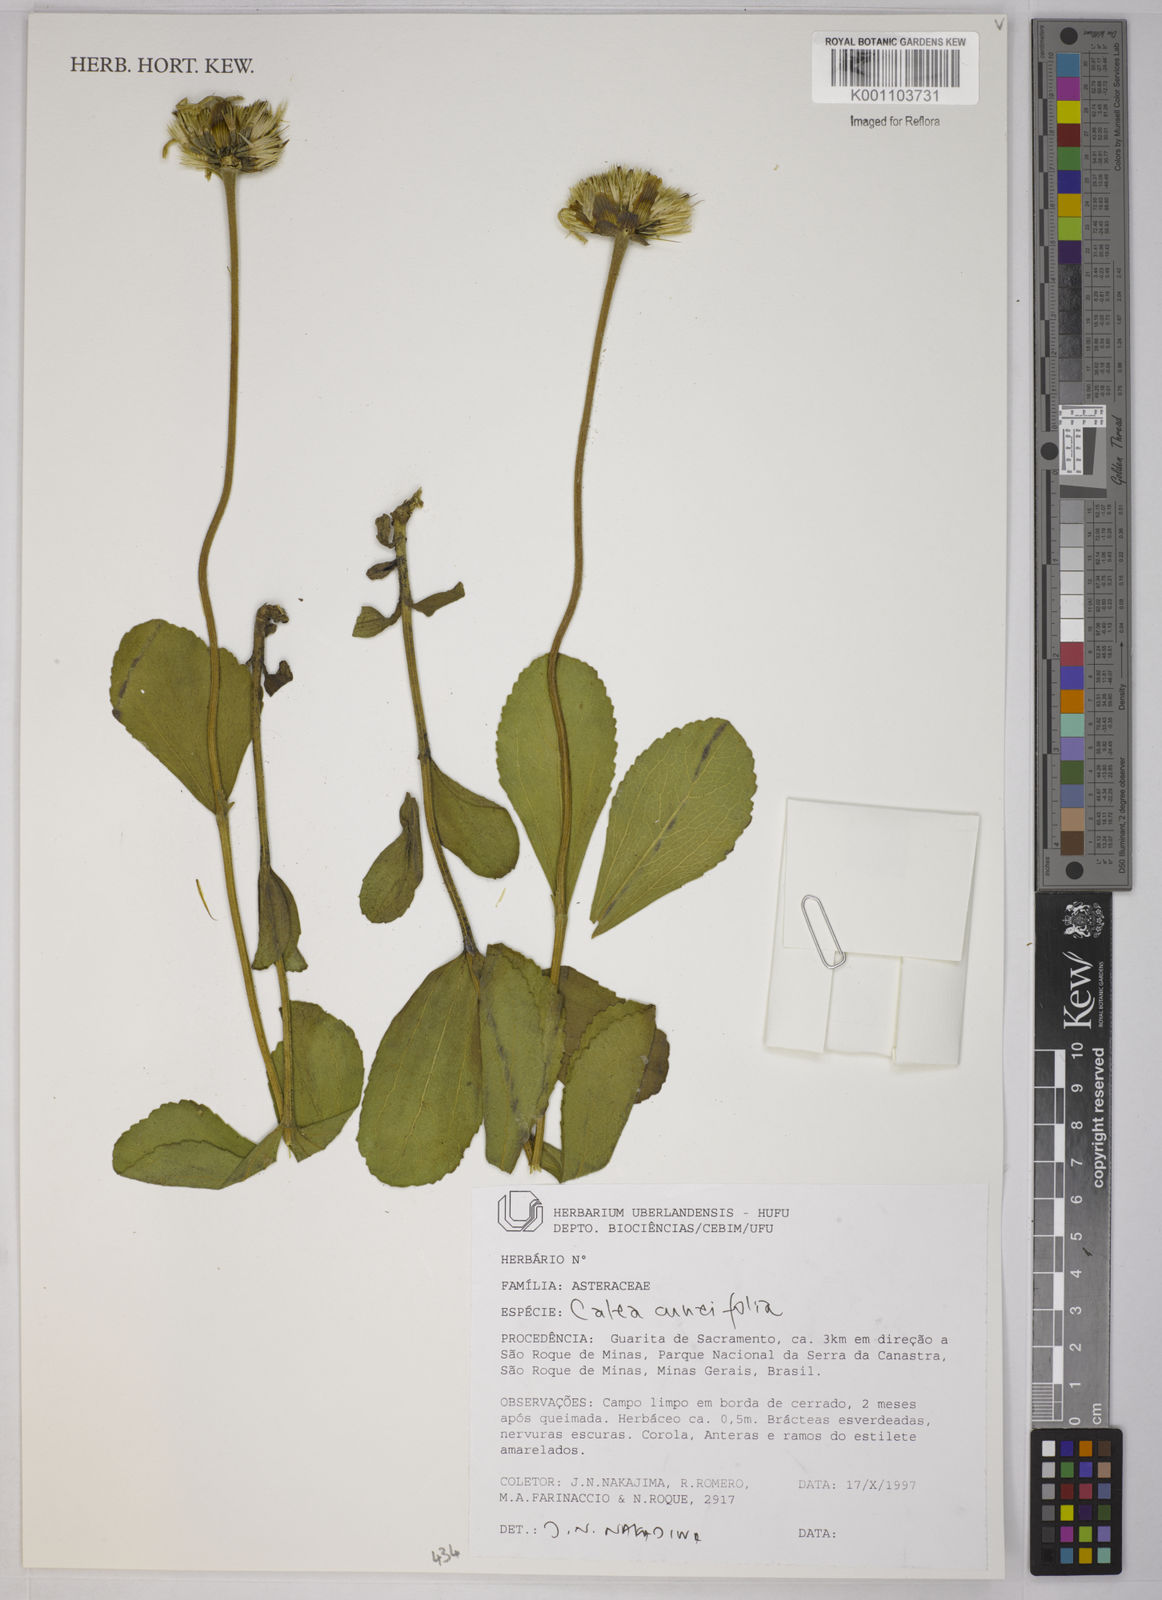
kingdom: Plantae
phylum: Tracheophyta
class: Magnoliopsida
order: Asterales
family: Asteraceae
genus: Calea
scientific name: Calea cuneifolia
